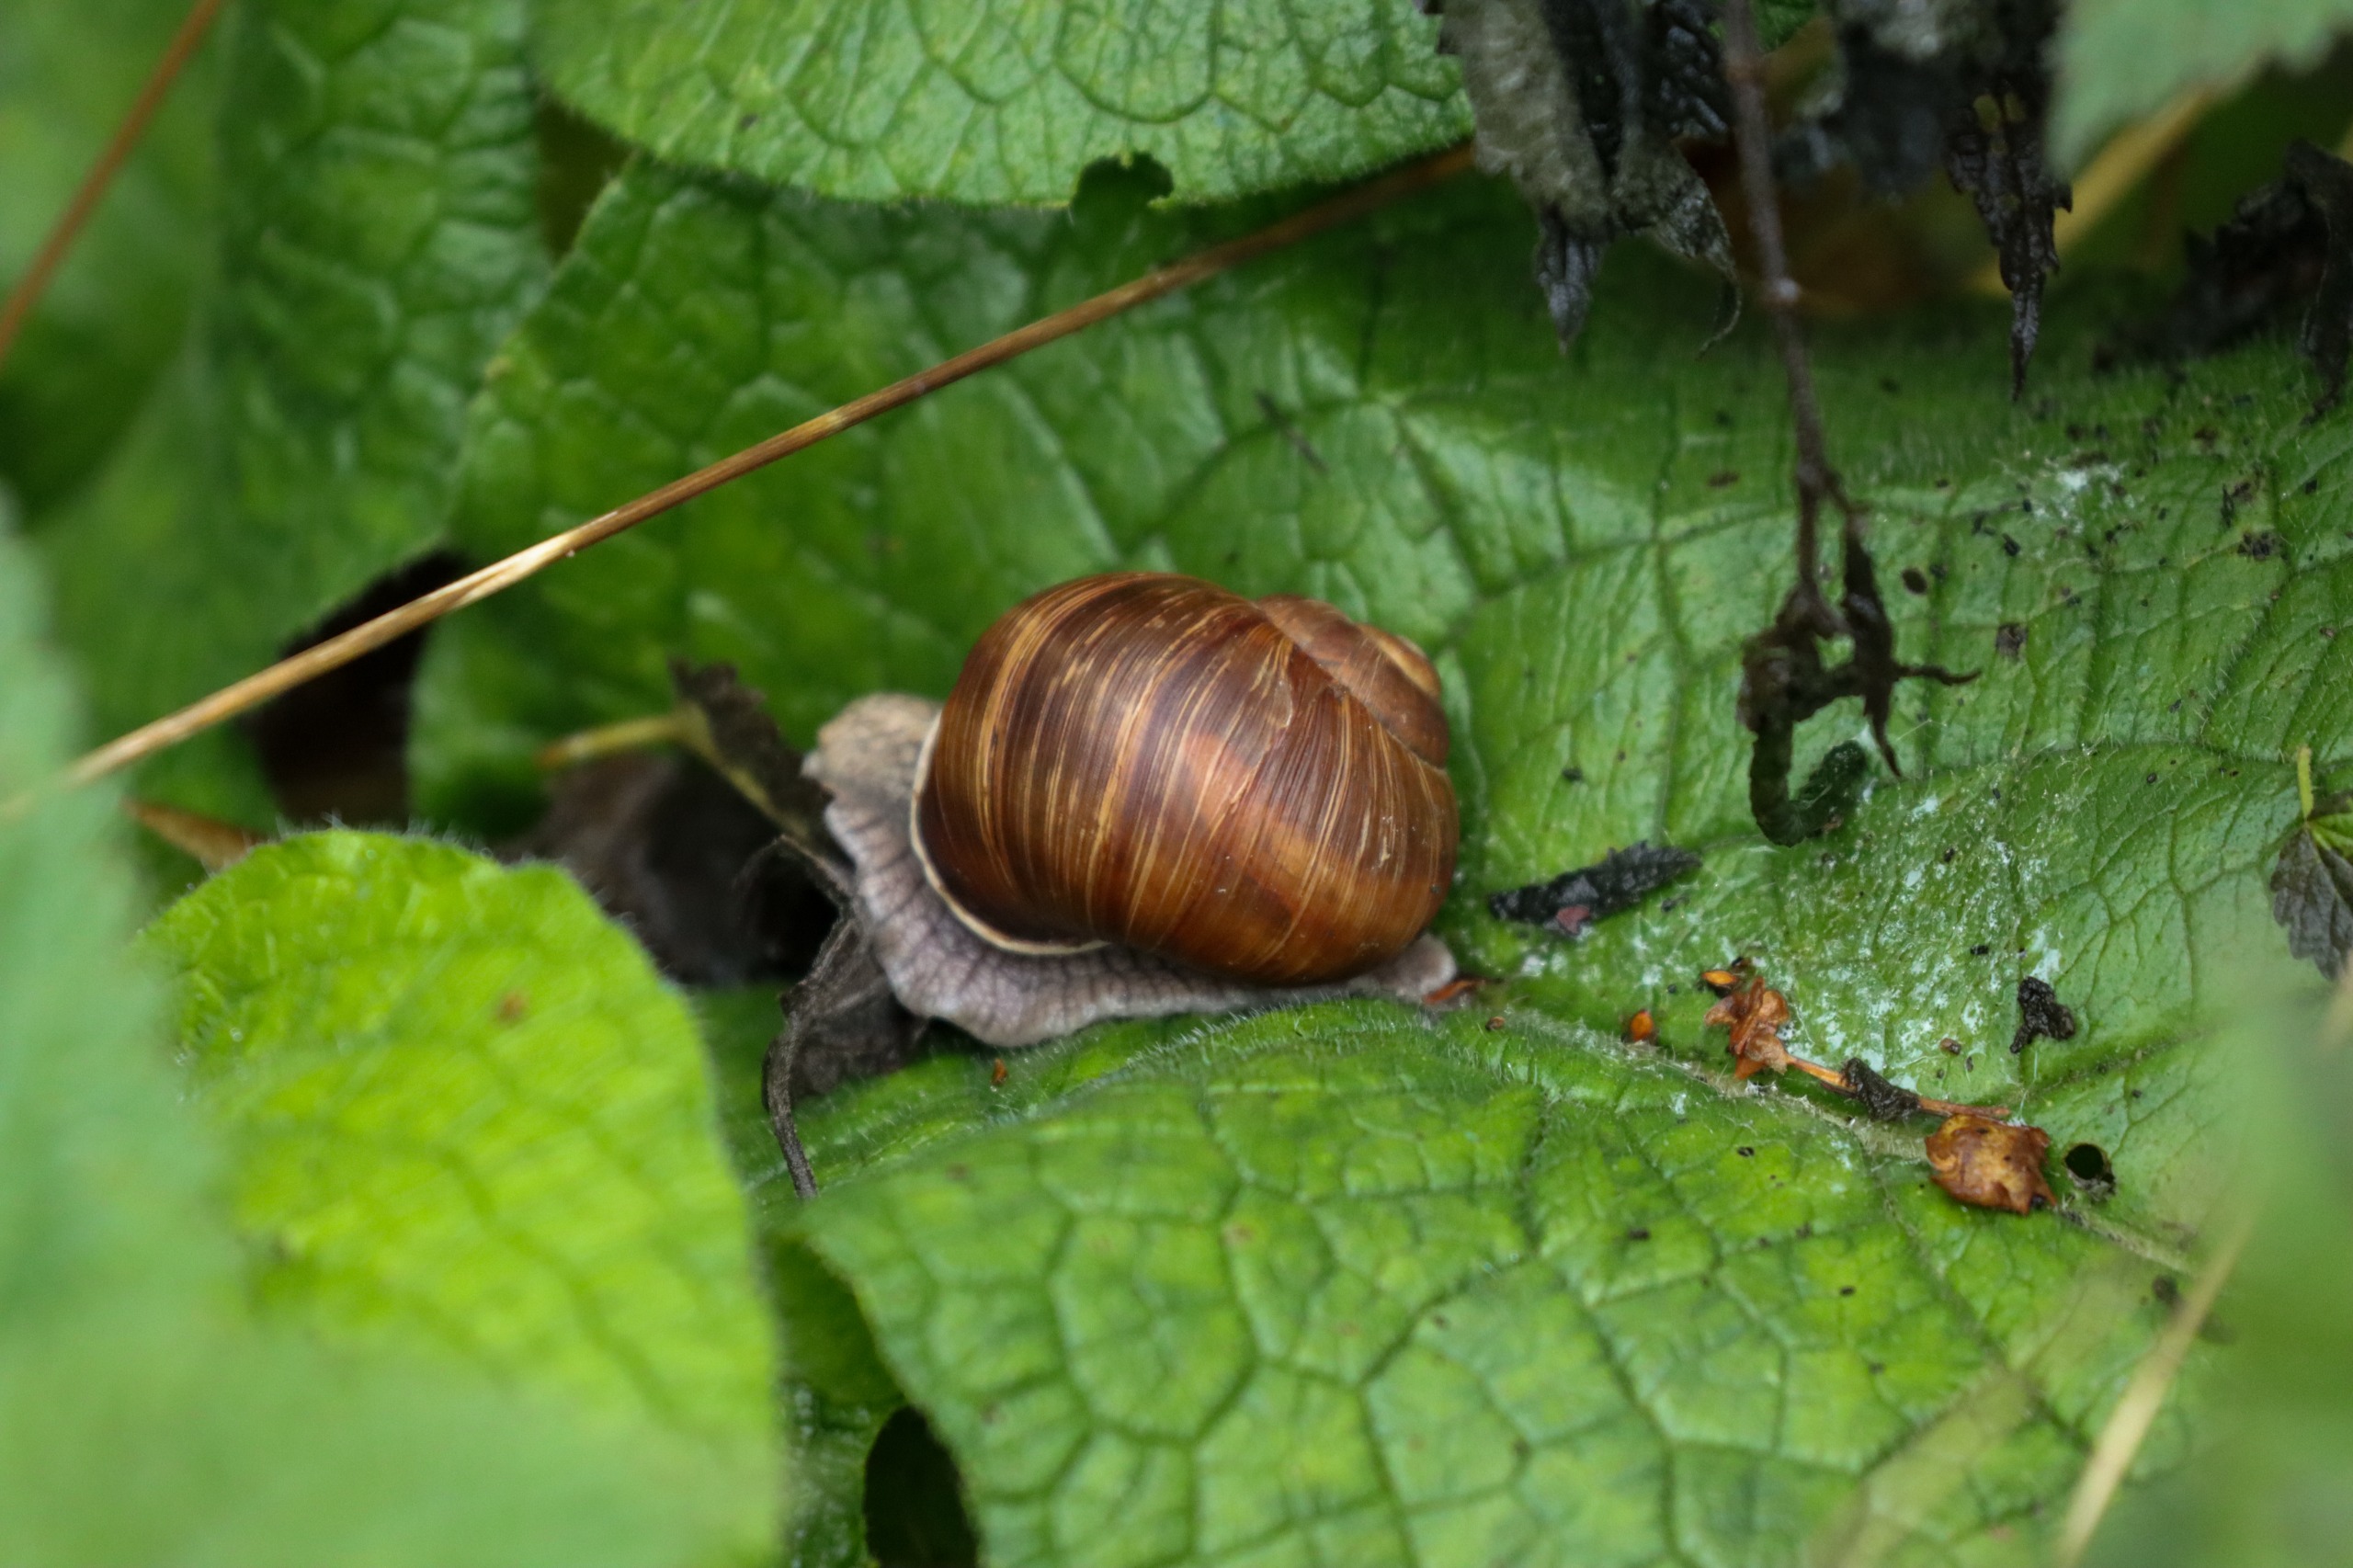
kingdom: Animalia
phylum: Mollusca
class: Gastropoda
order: Stylommatophora
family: Helicidae
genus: Helix
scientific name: Helix pomatia
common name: Vinbjergsnegl
